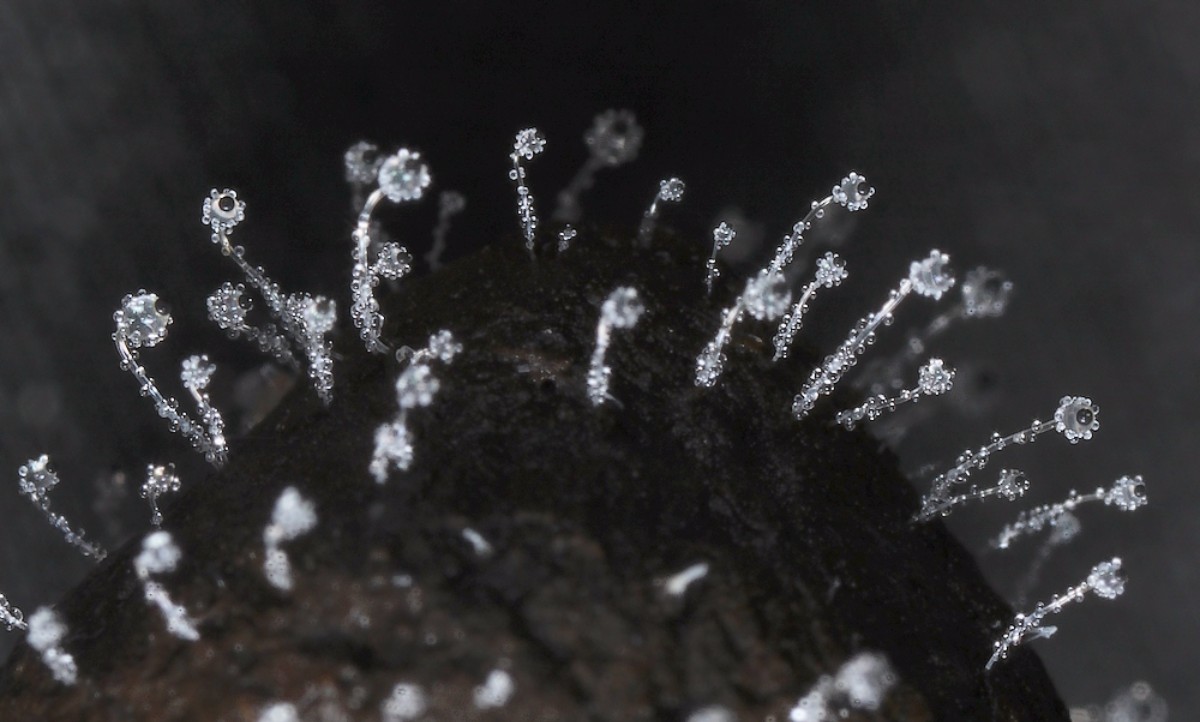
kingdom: Fungi
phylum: Mucoromycota
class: Mucoromycetes
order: Mucorales
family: Pilobolaceae
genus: Pilobolus
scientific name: Pilobolus
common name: boldkaster
